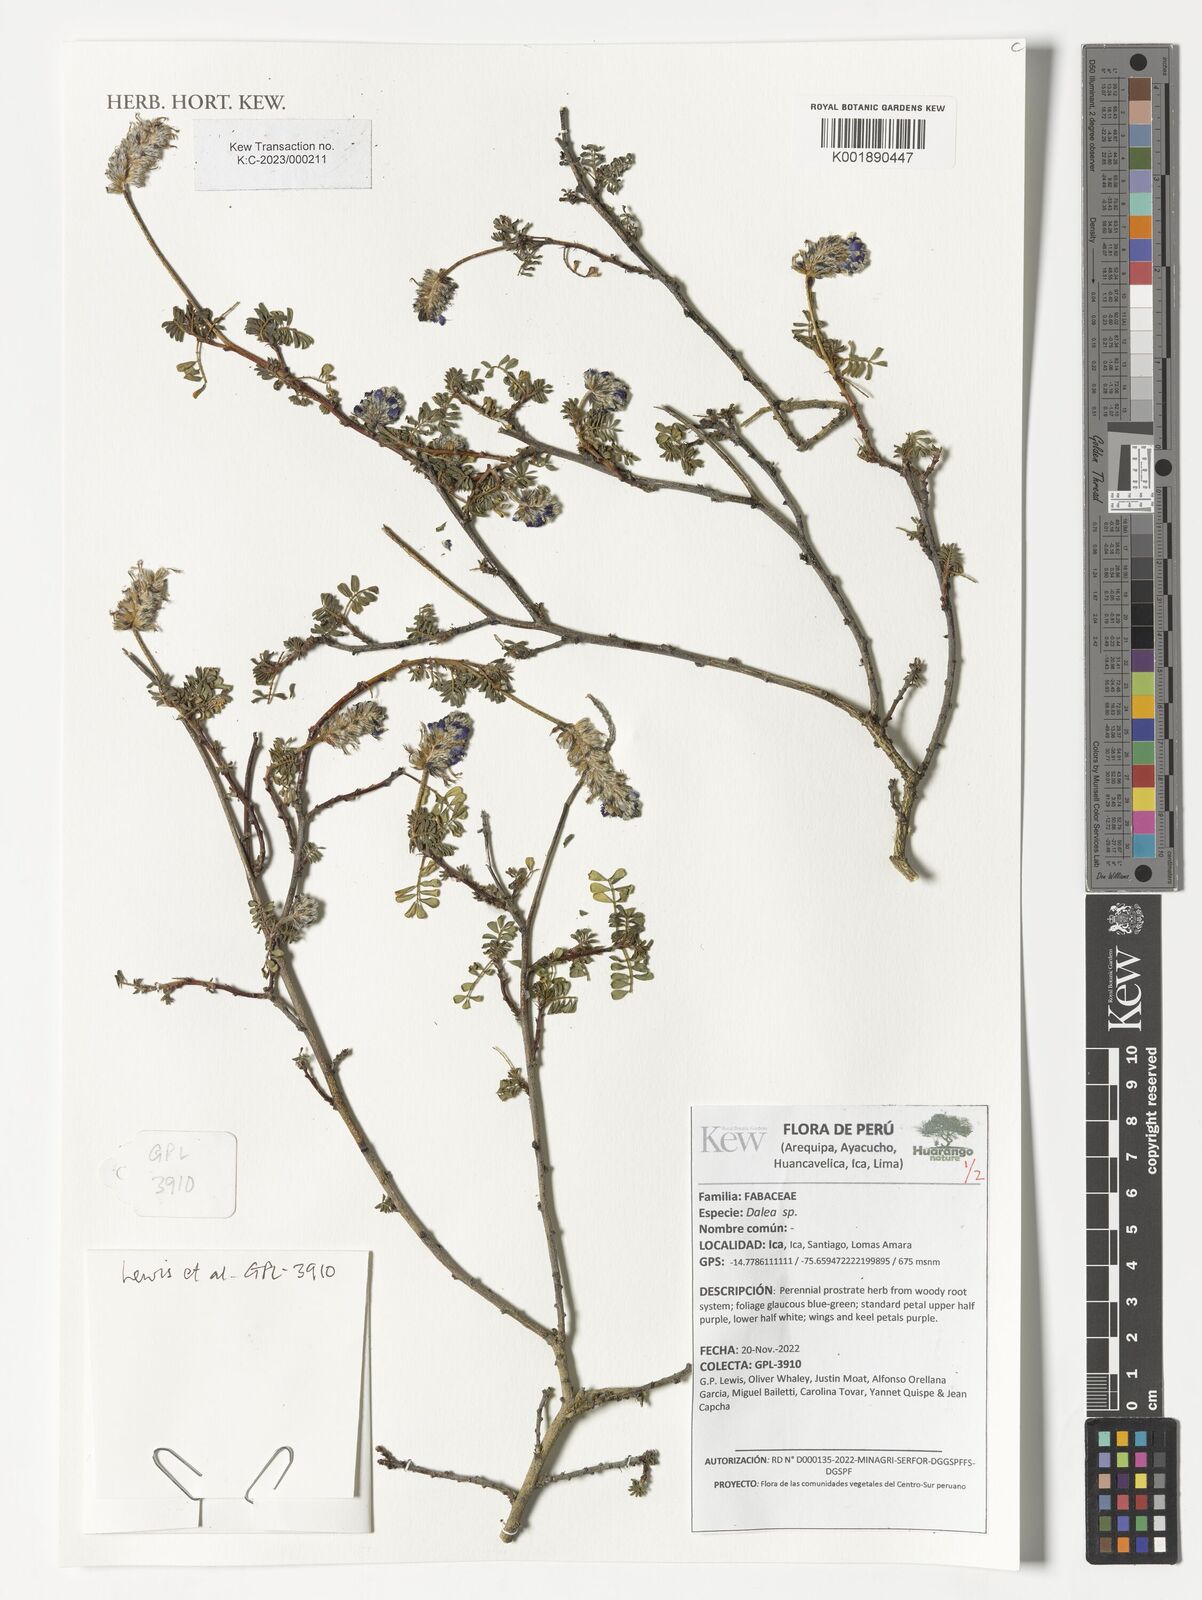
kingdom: Plantae
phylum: Tracheophyta
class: Magnoliopsida
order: Fabales
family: Fabaceae
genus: Dalea
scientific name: Dalea
